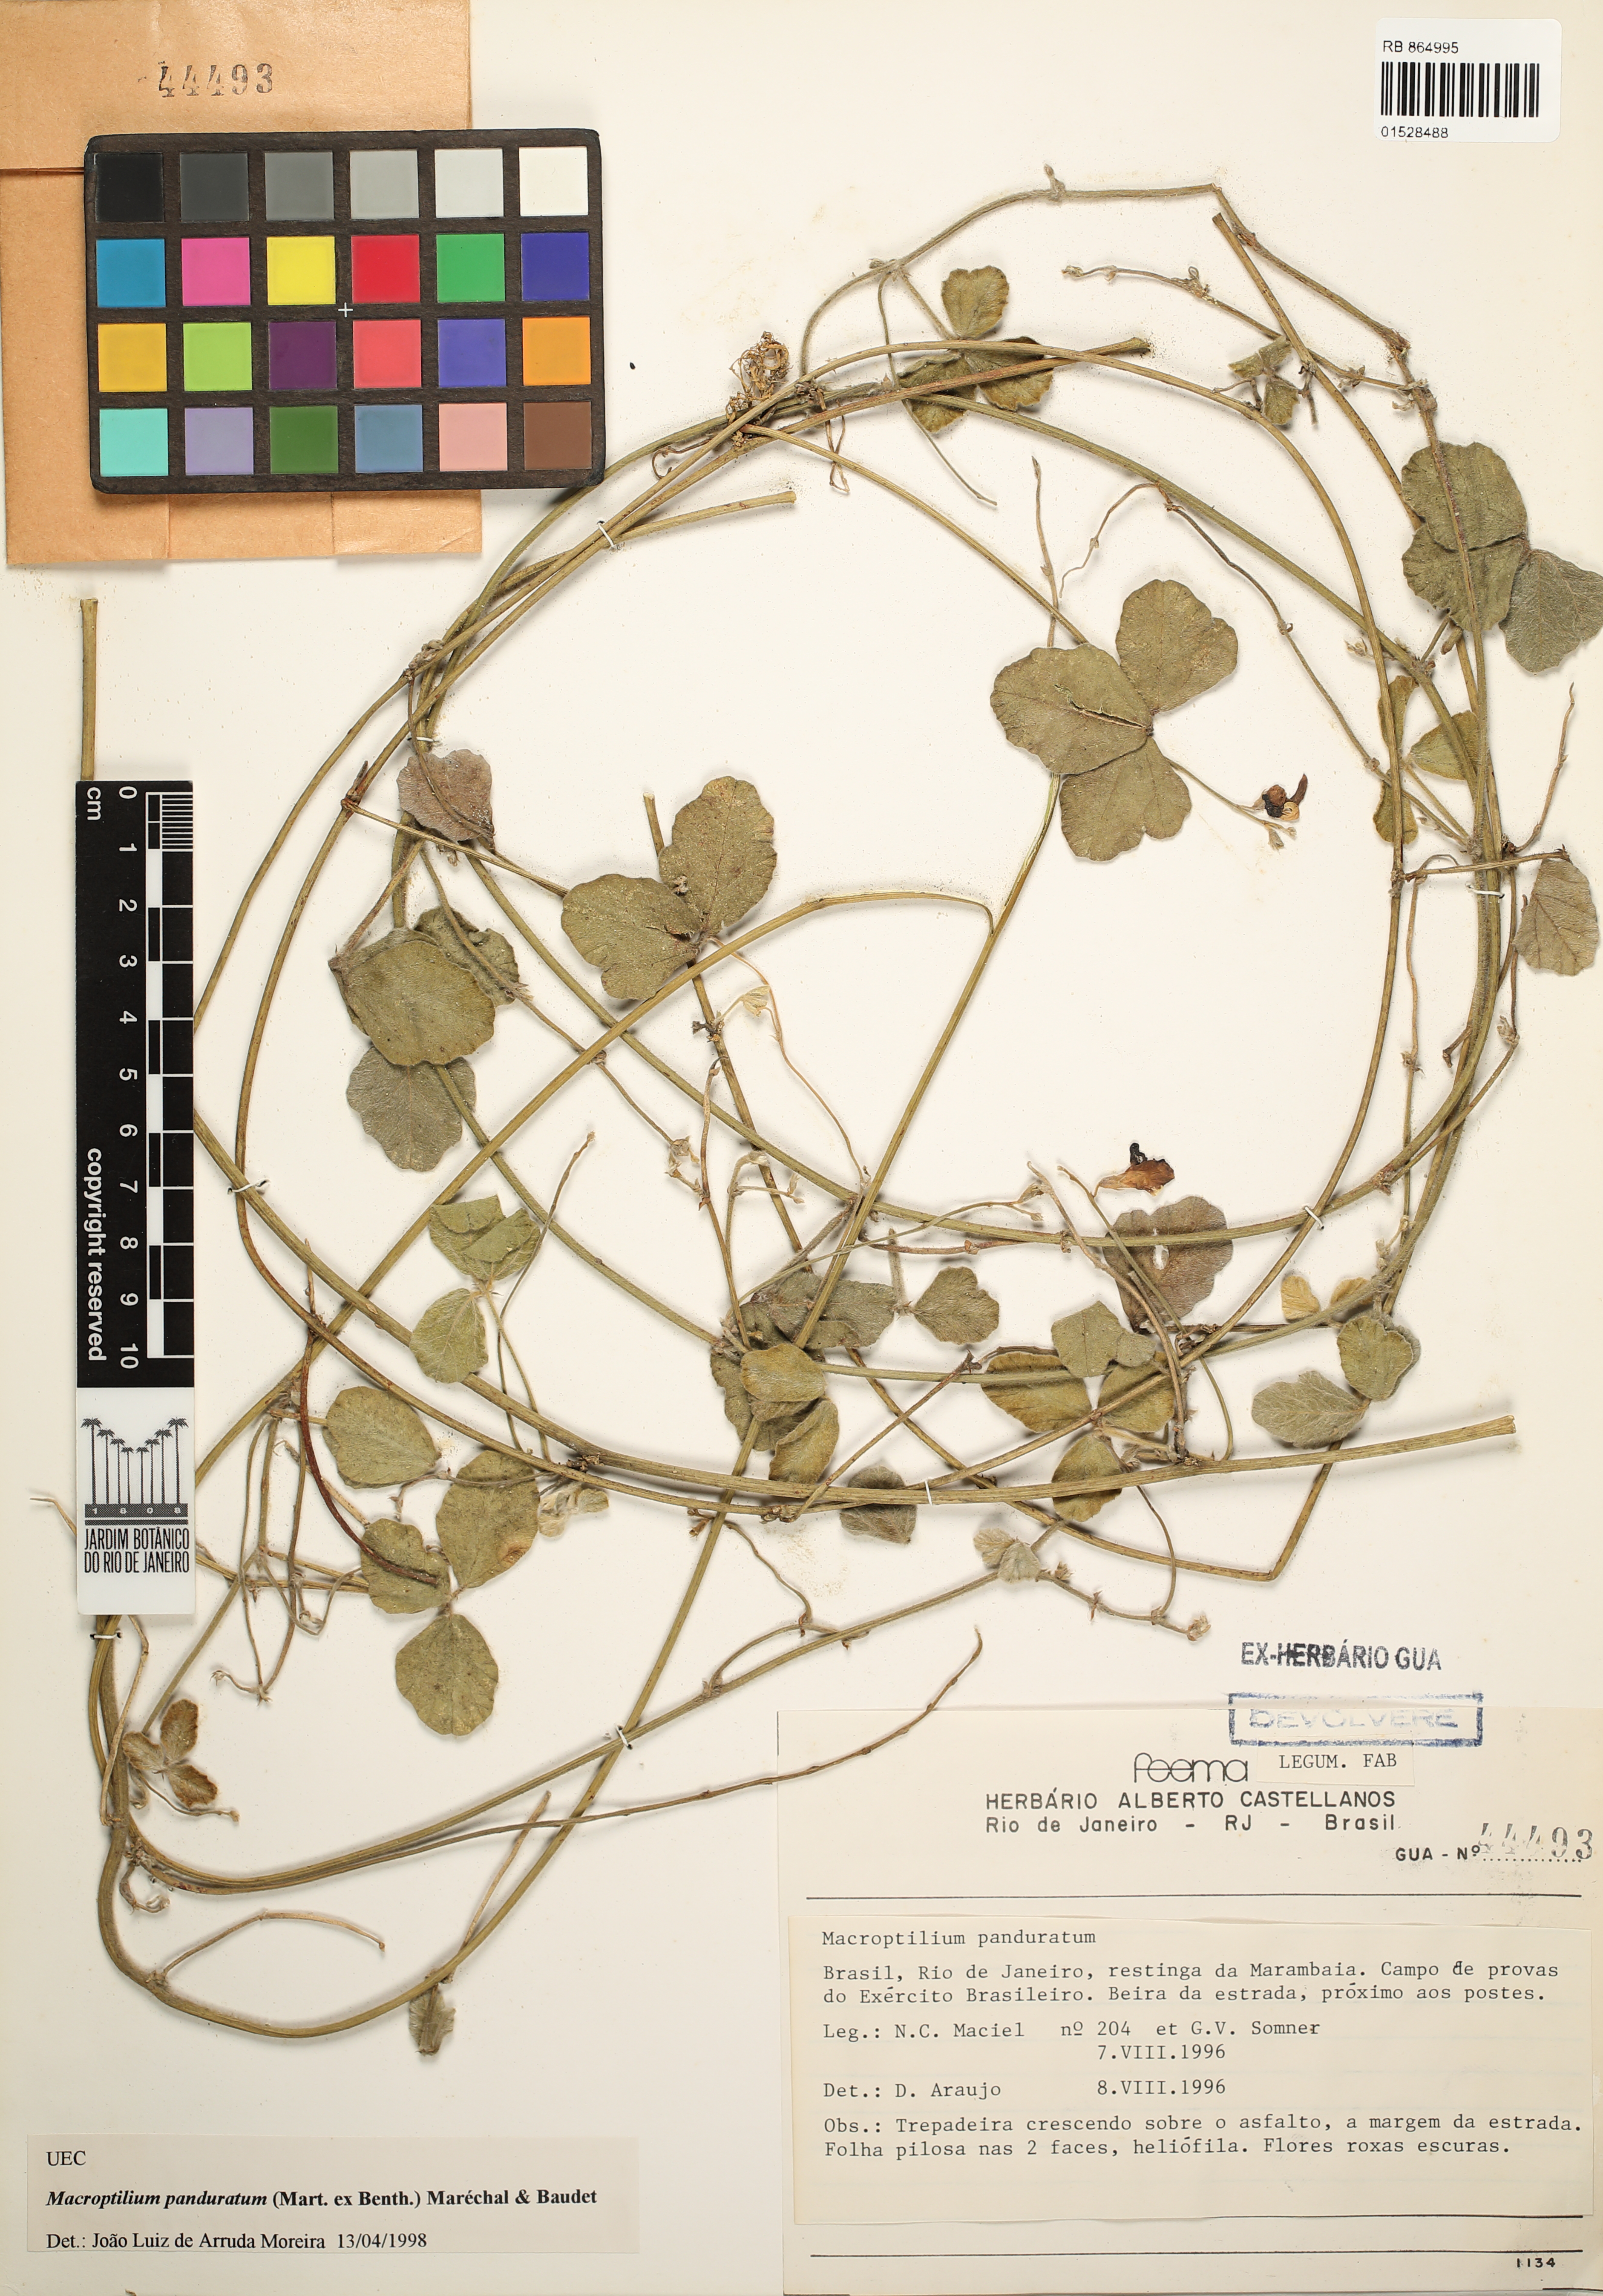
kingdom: Plantae
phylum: Tracheophyta
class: Magnoliopsida
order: Fabales
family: Fabaceae
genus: Macroptilium
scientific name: Macroptilium panduratum
